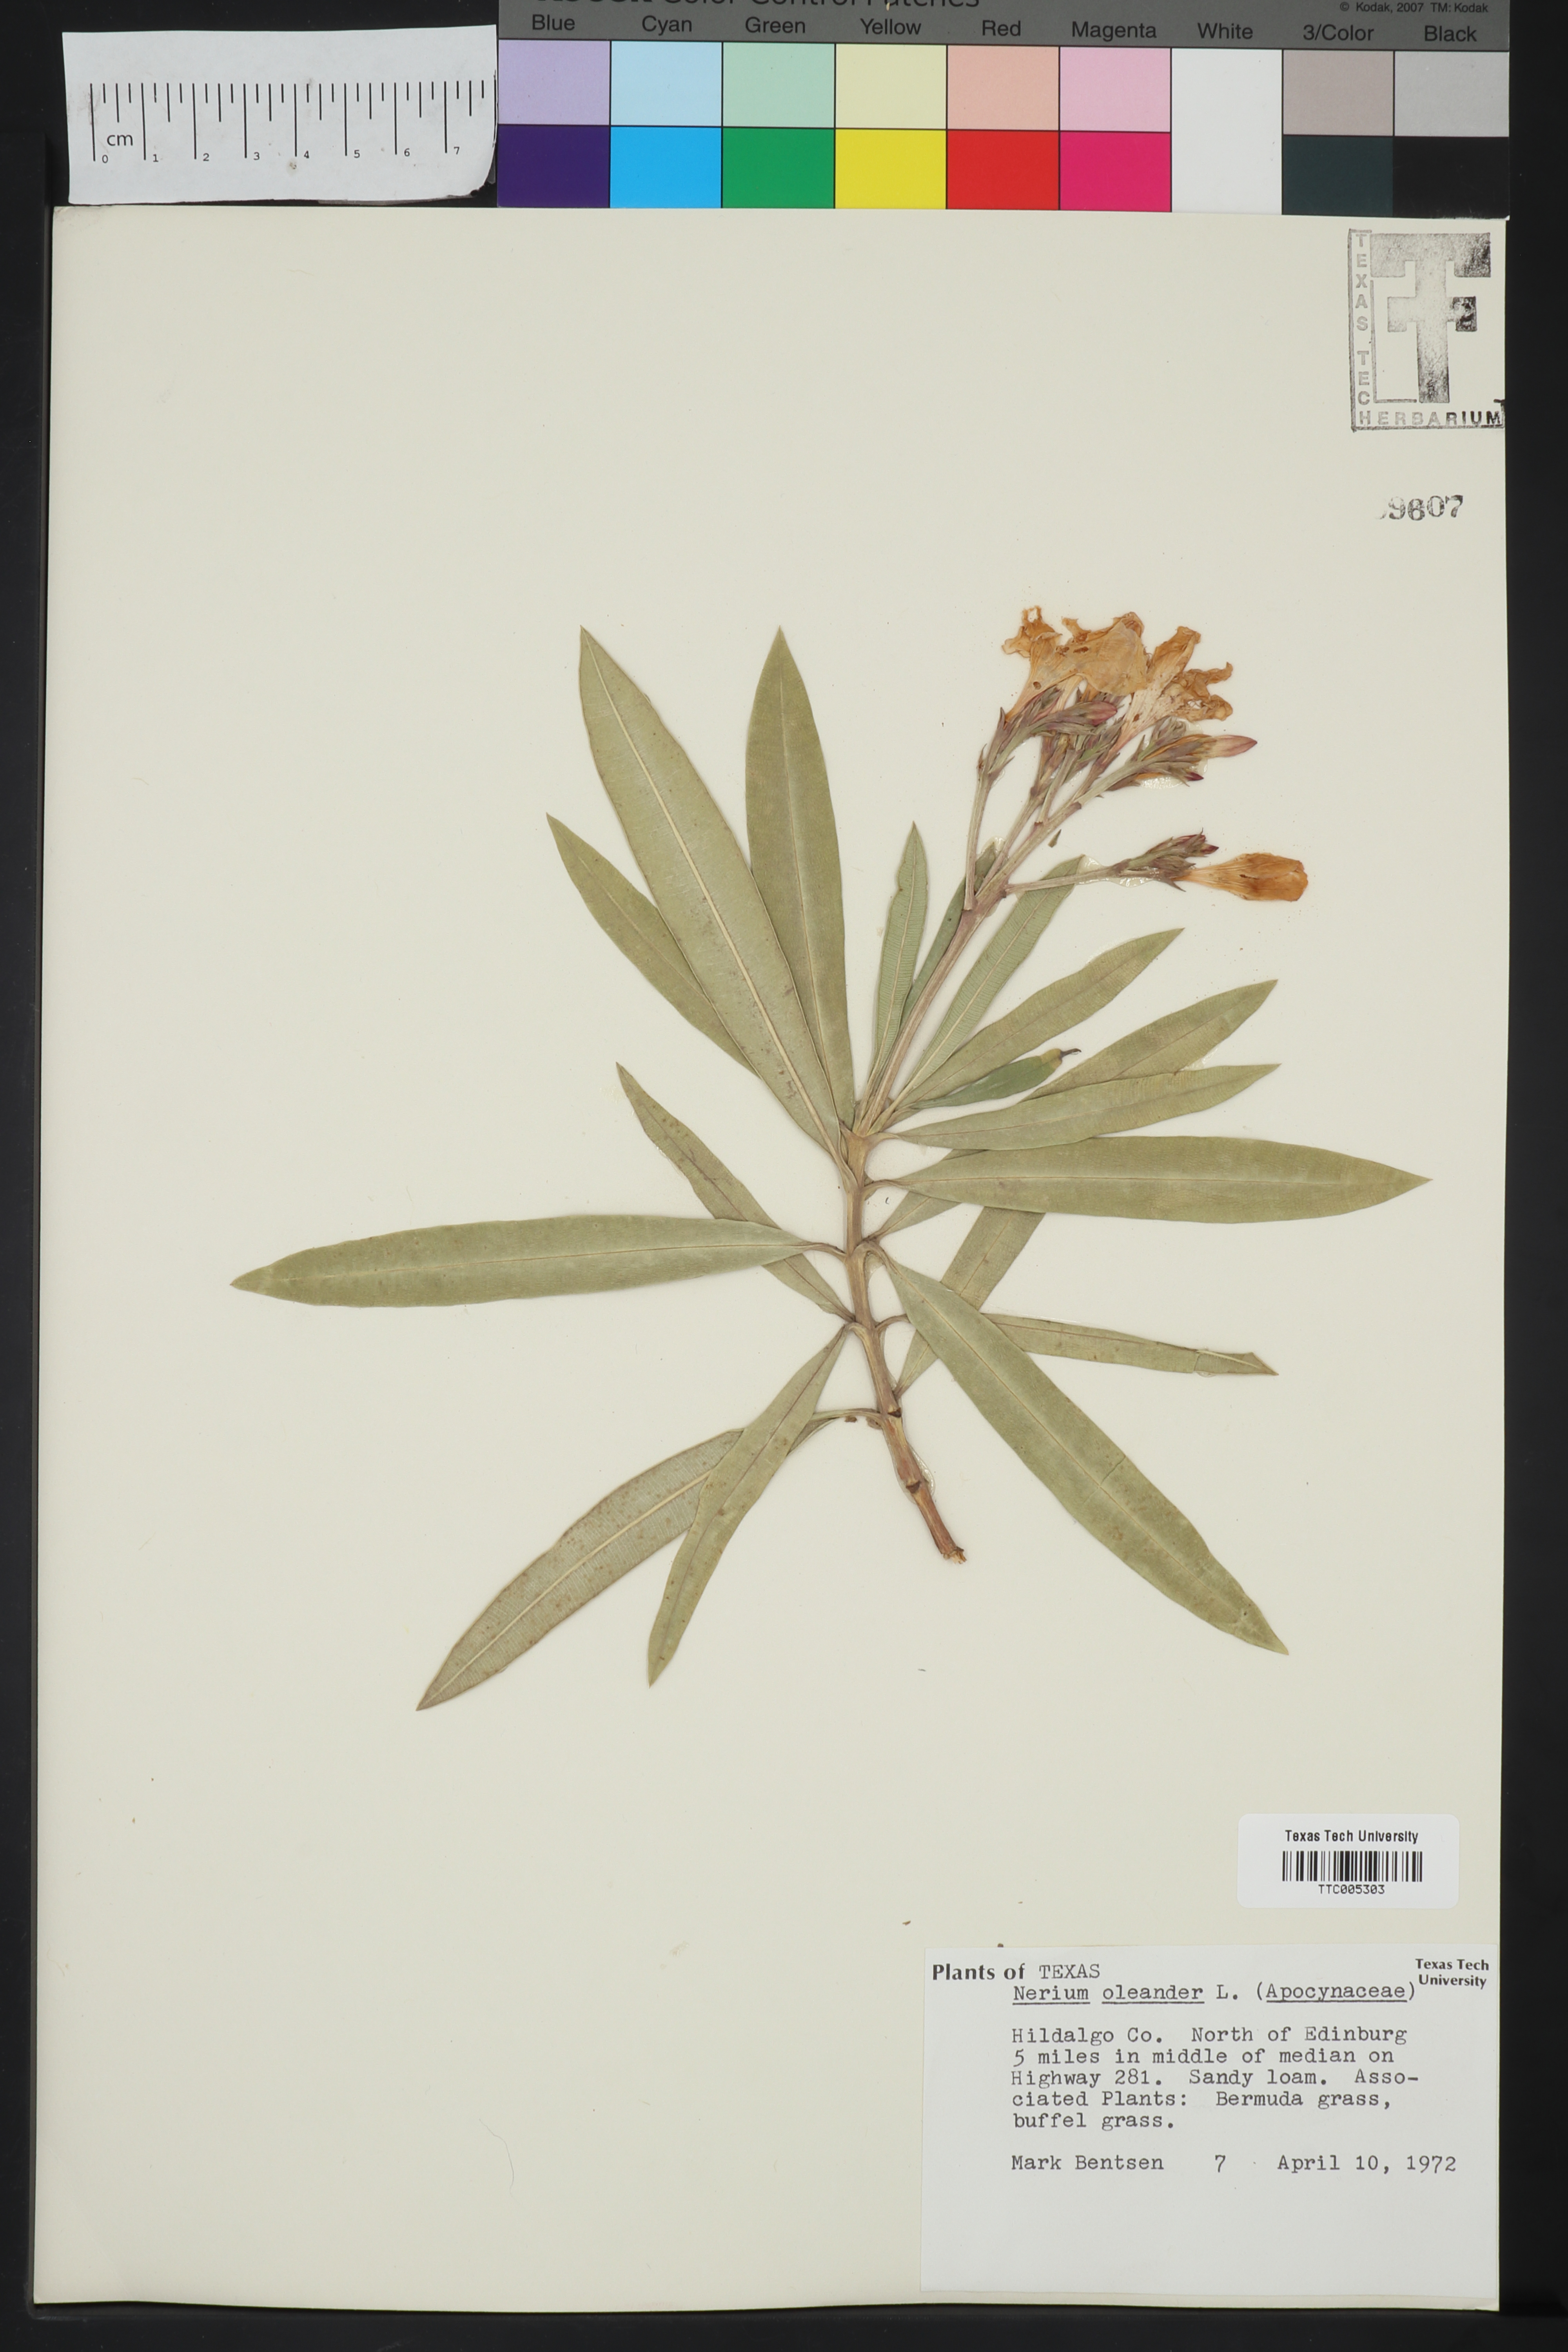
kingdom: Plantae
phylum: Tracheophyta
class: Magnoliopsida
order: Gentianales
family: Apocynaceae
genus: Nerium
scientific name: Nerium oleander
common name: Oleander
